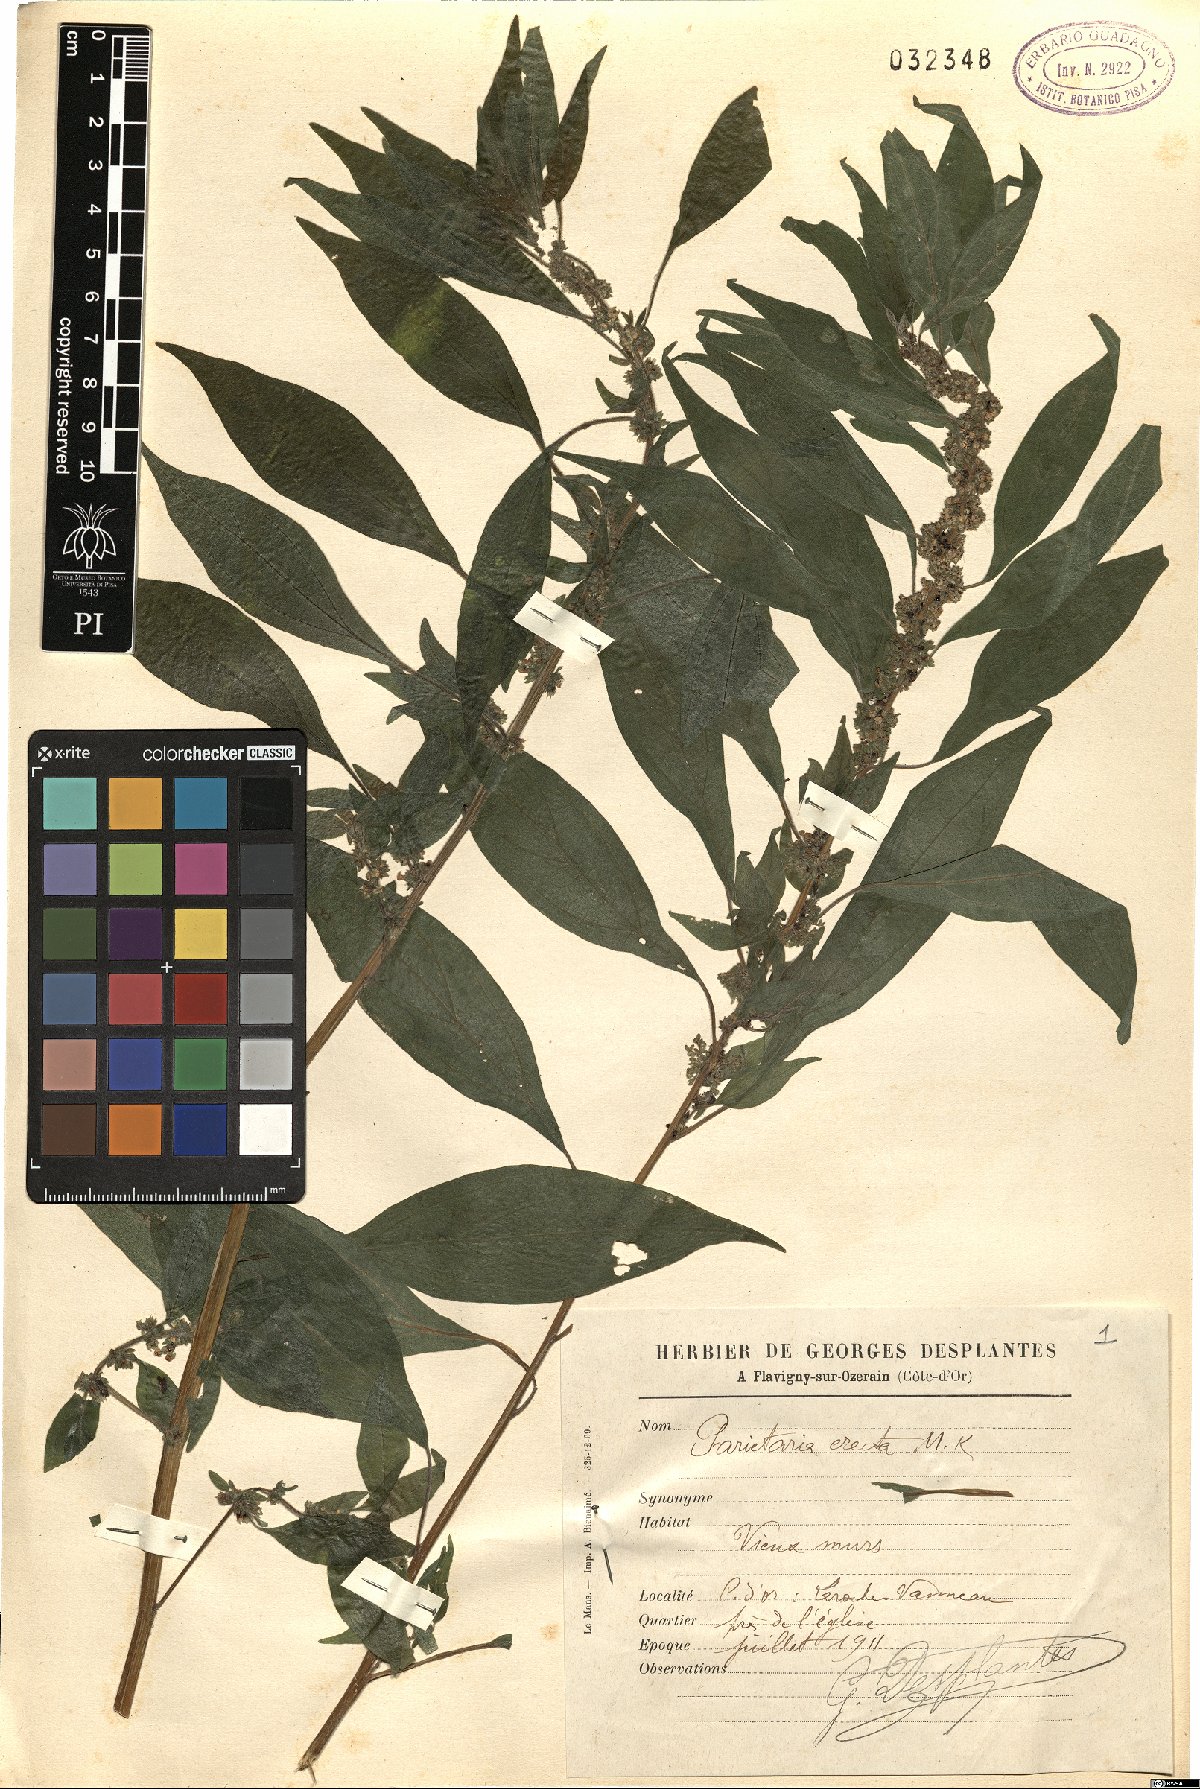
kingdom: Plantae
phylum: Tracheophyta
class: Magnoliopsida
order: Rosales
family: Urticaceae
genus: Parietaria
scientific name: Parietaria officinalis
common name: Eastern pellitory-of-the-wall
